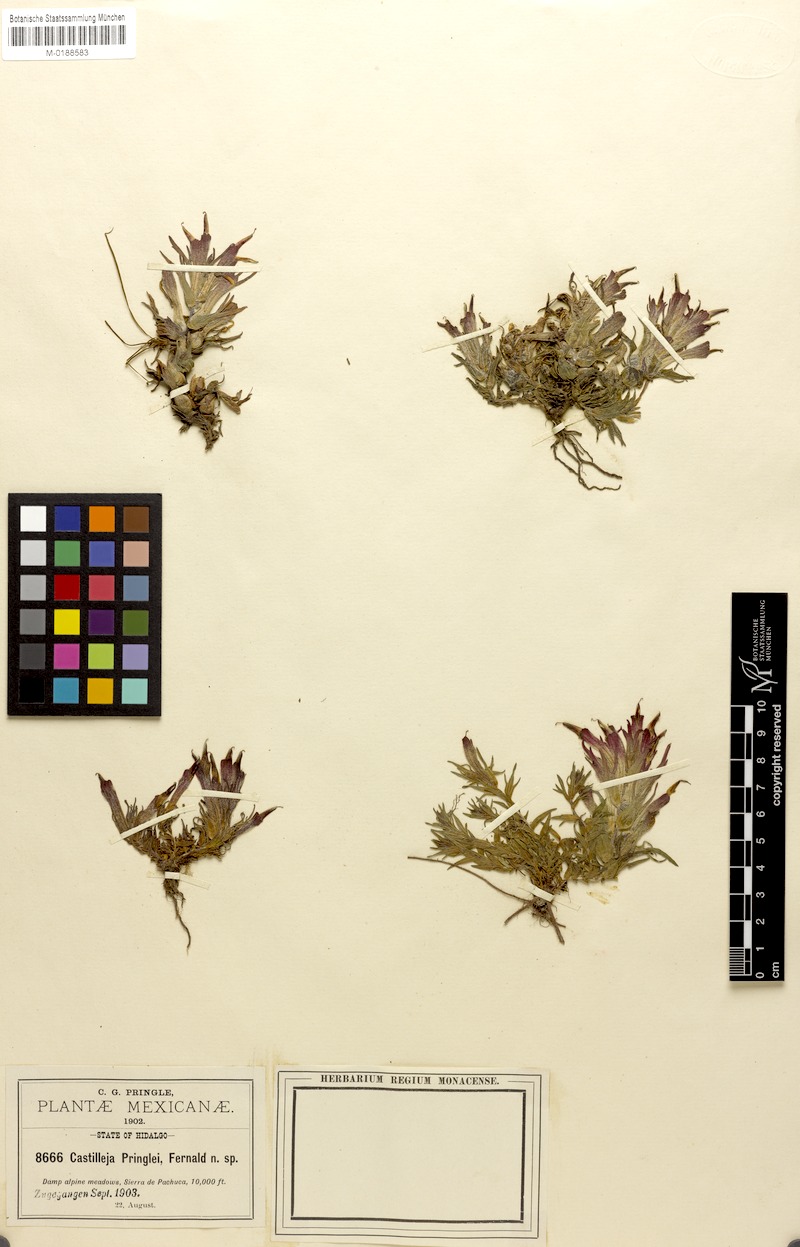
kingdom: Plantae
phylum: Tracheophyta
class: Magnoliopsida
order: Lamiales
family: Orobanchaceae
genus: Castilleja
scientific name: Castilleja pringlei
